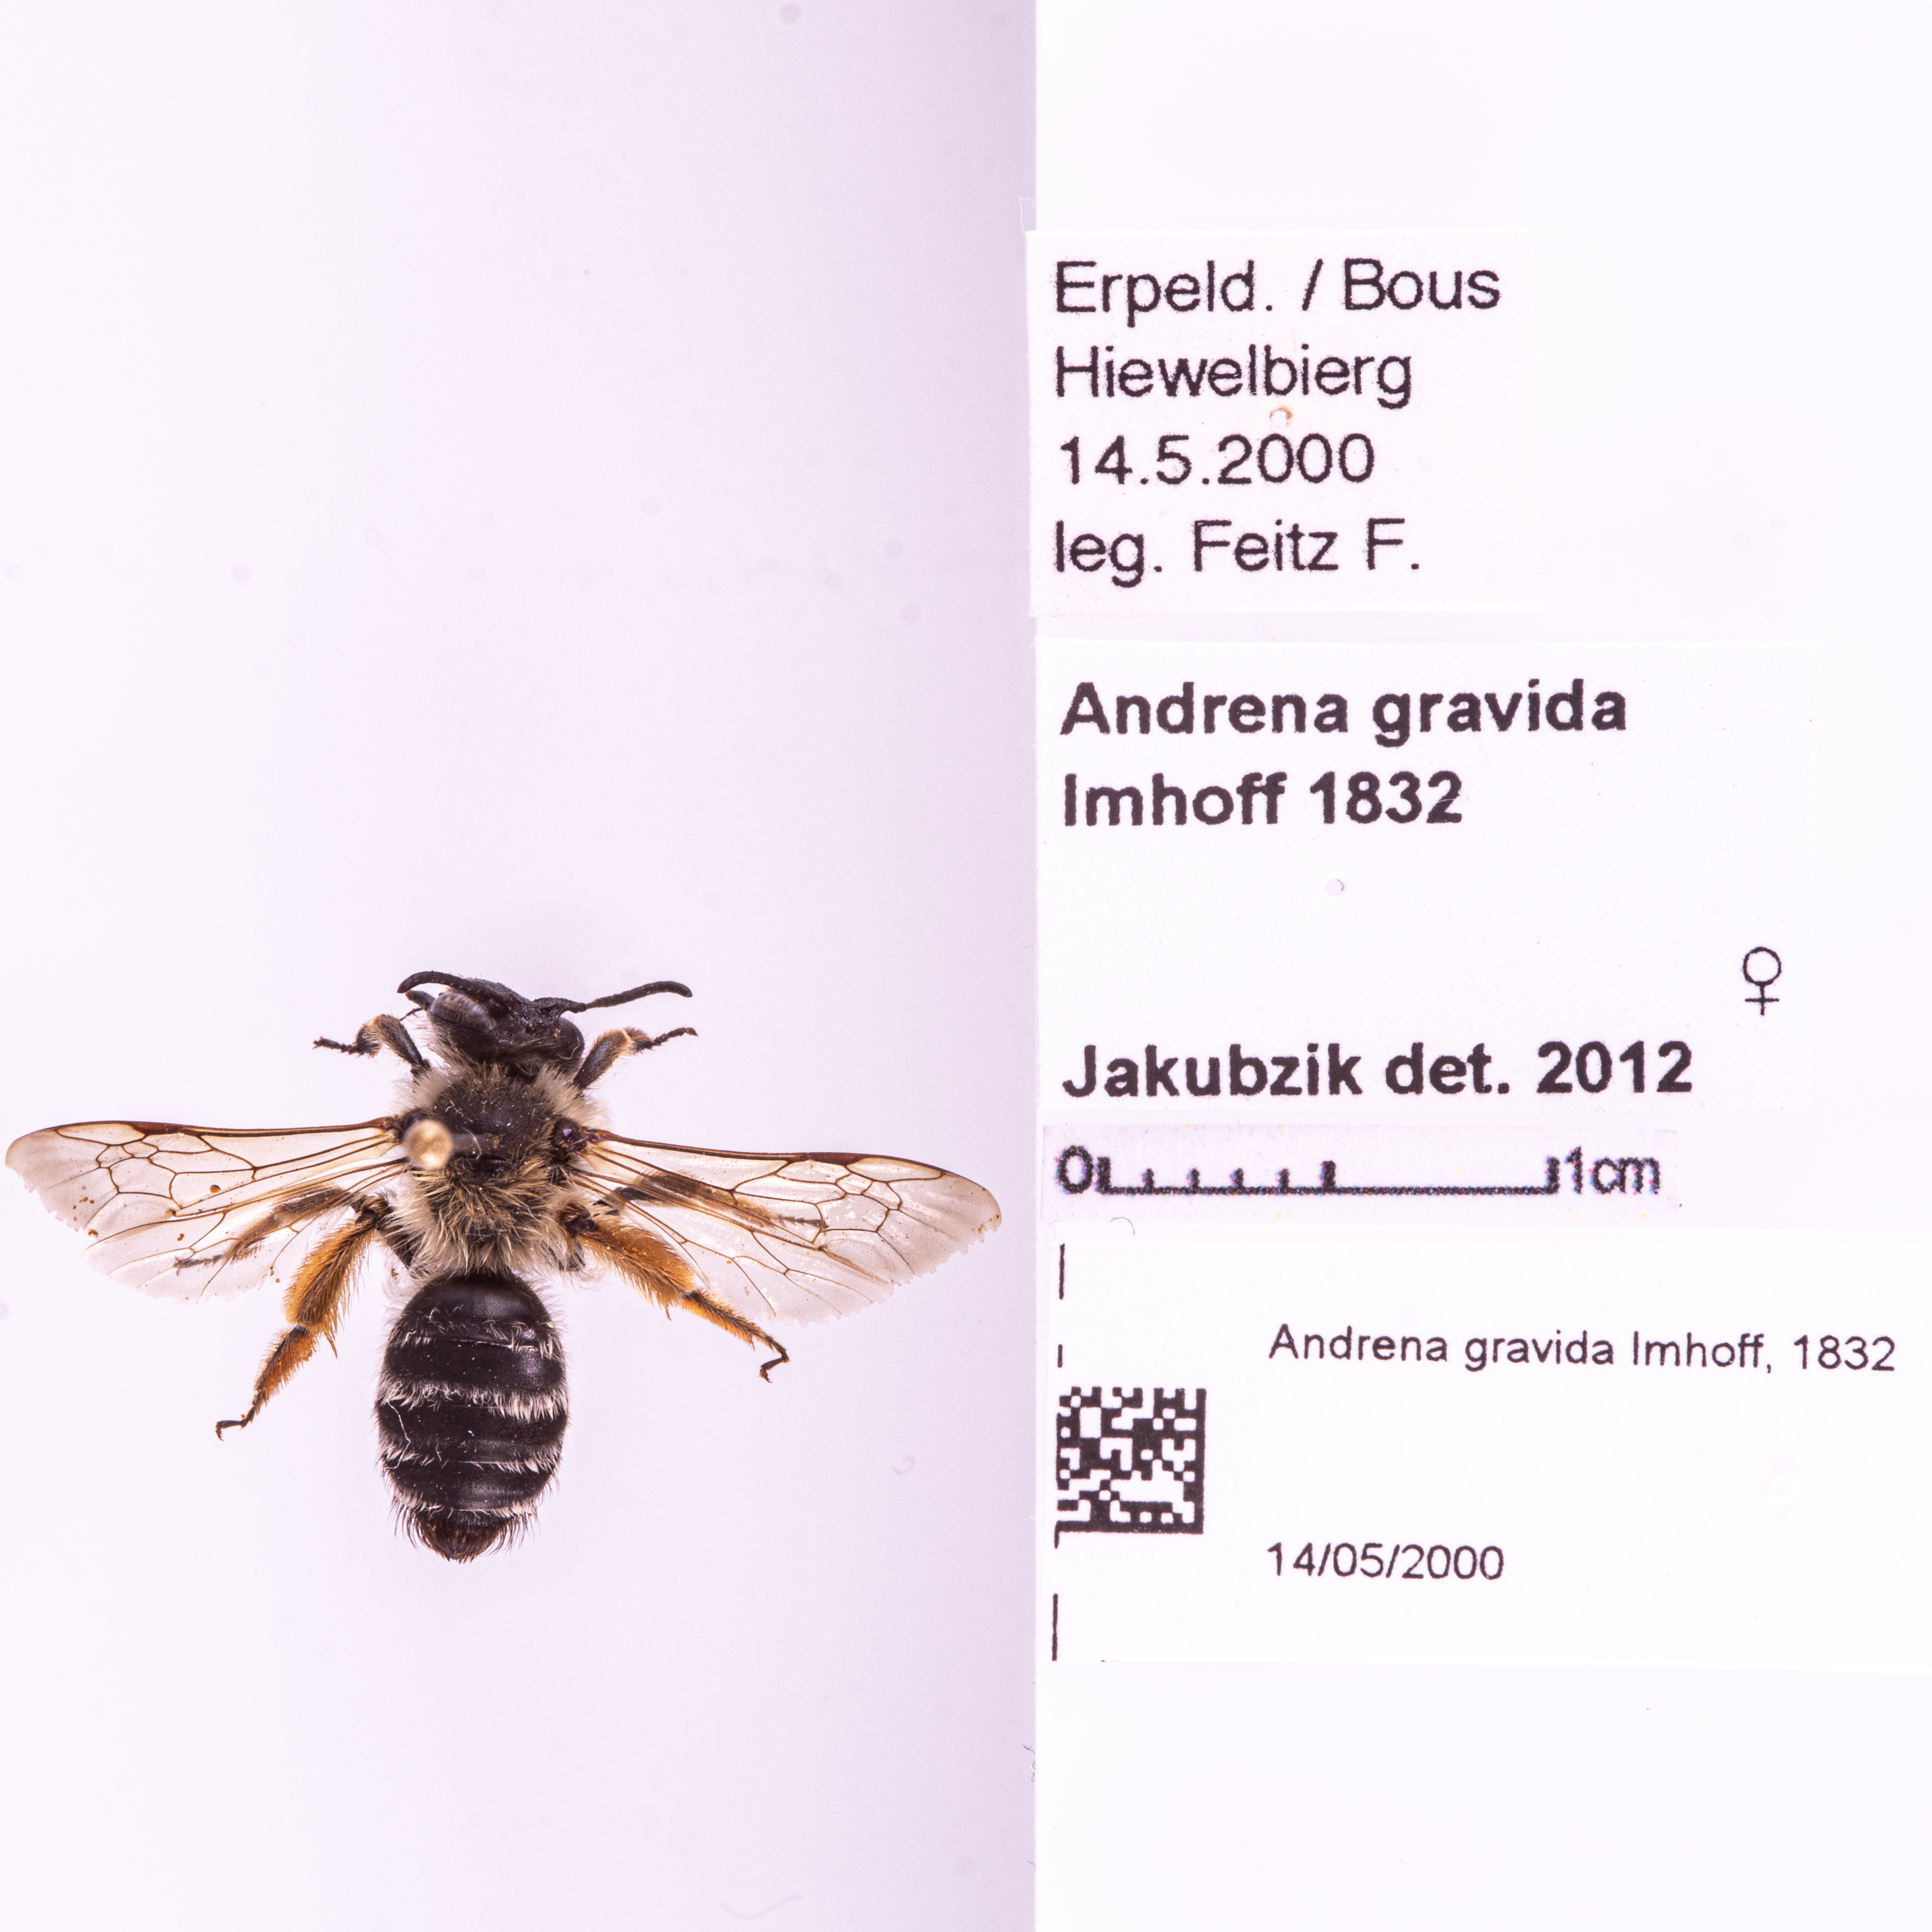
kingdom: Animalia
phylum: Arthropoda
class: Insecta
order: Hymenoptera
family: Andrenidae
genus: Andrena
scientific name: Andrena gravida
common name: White-bellied mining bee
